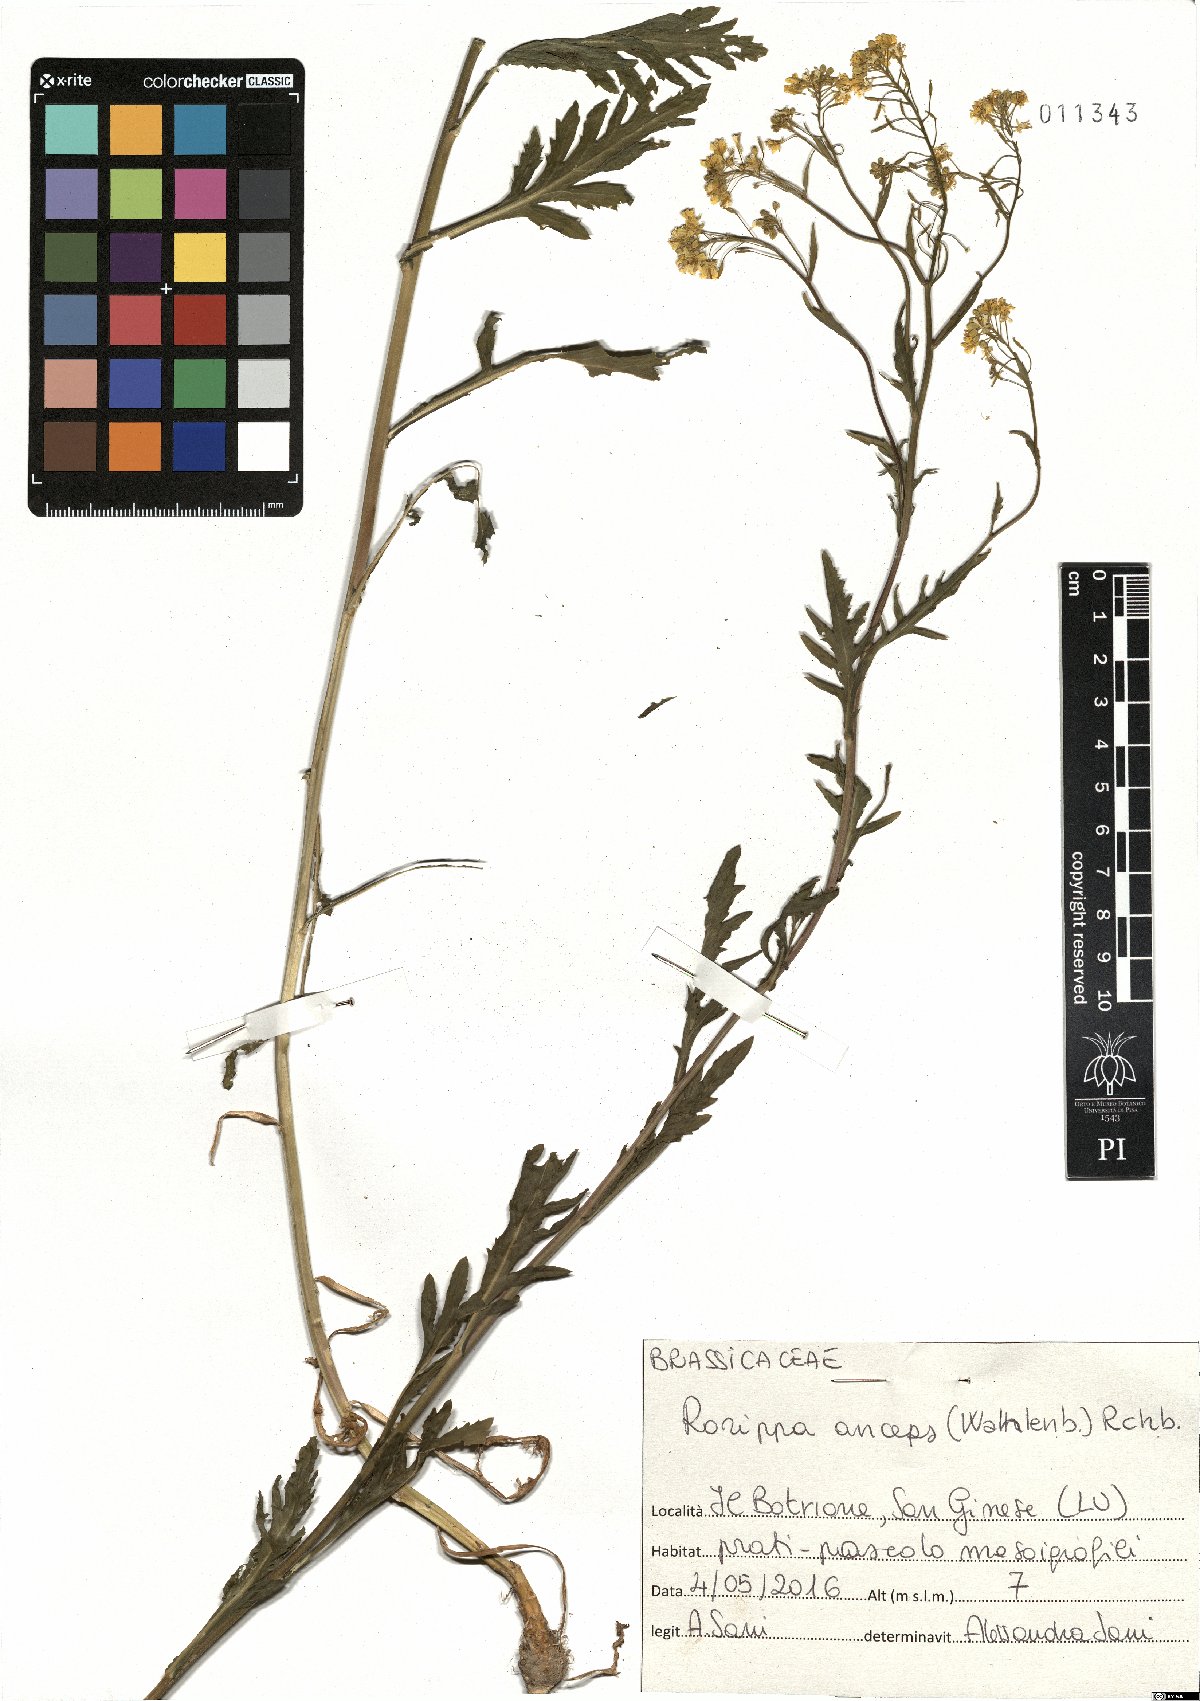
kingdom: Plantae
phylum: Tracheophyta
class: Magnoliopsida
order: Brassicales
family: Brassicaceae
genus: Rorippa
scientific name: Rorippa anceps
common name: Rorippa
